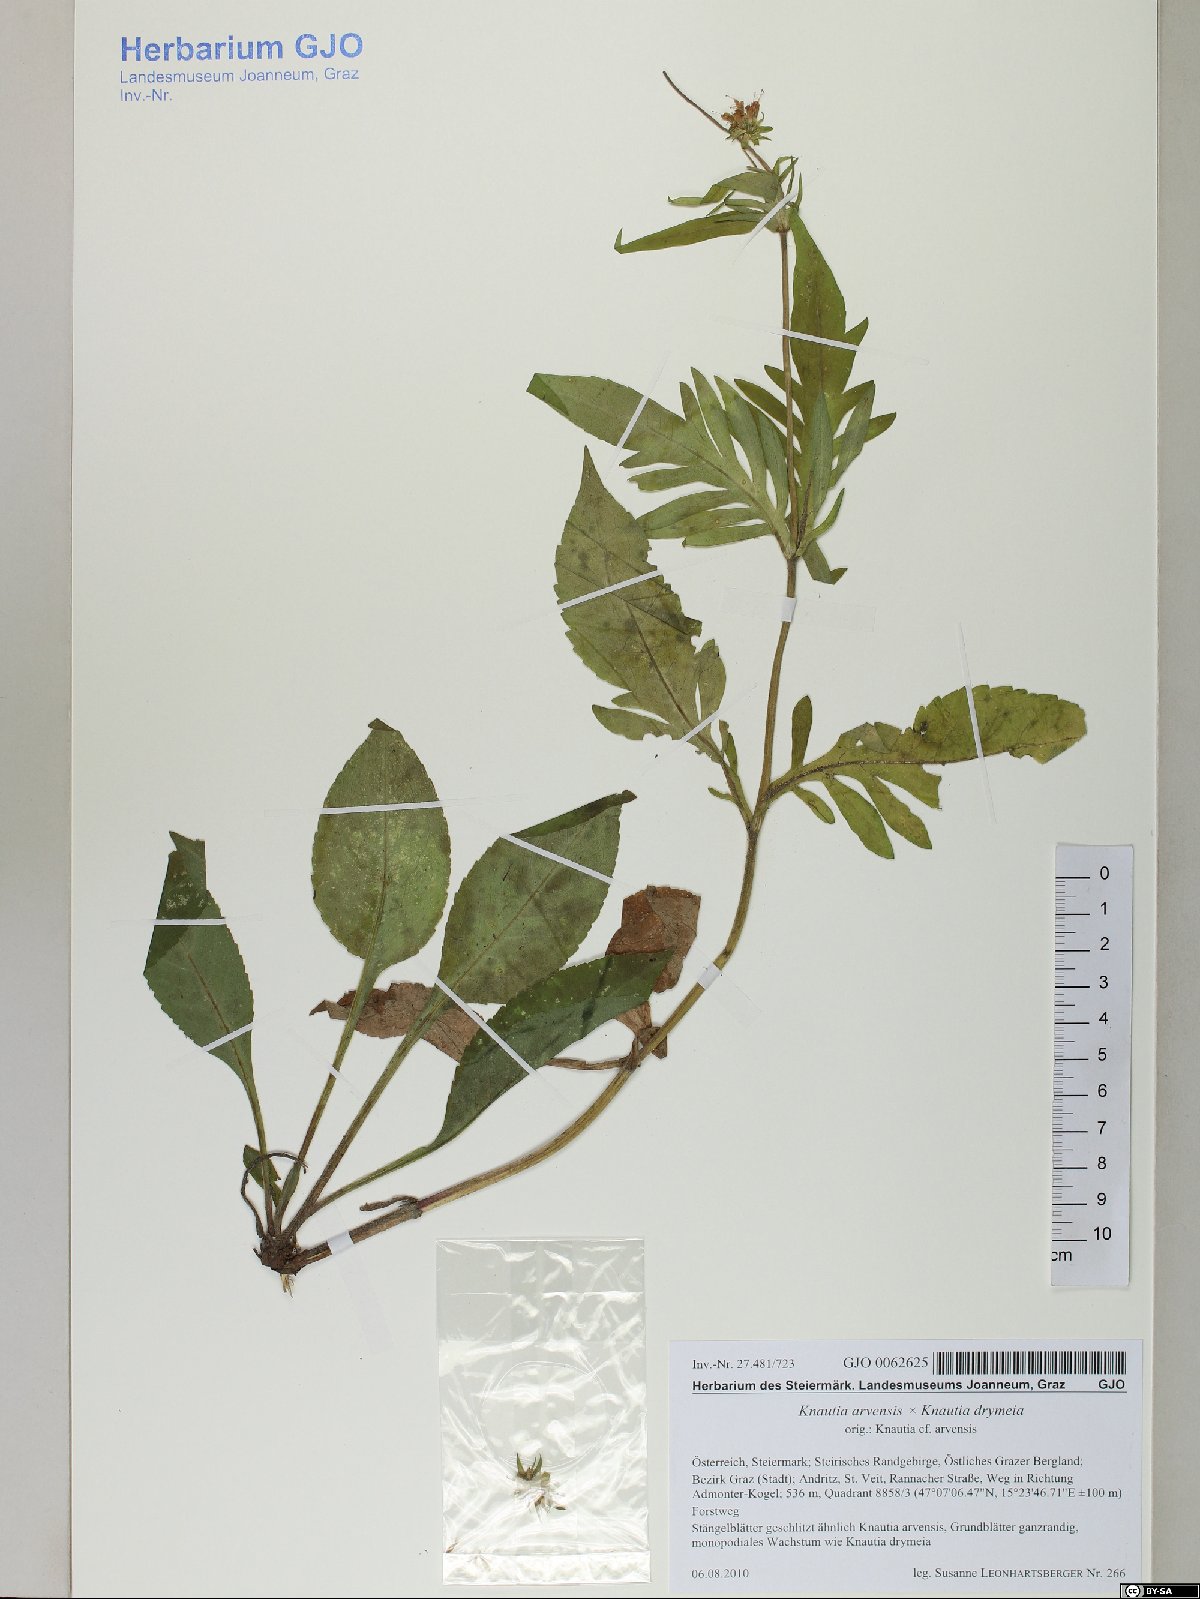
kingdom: Plantae
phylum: Tracheophyta
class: Magnoliopsida
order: Dipsacales
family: Dipsacaceae
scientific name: Dipsacaceae
